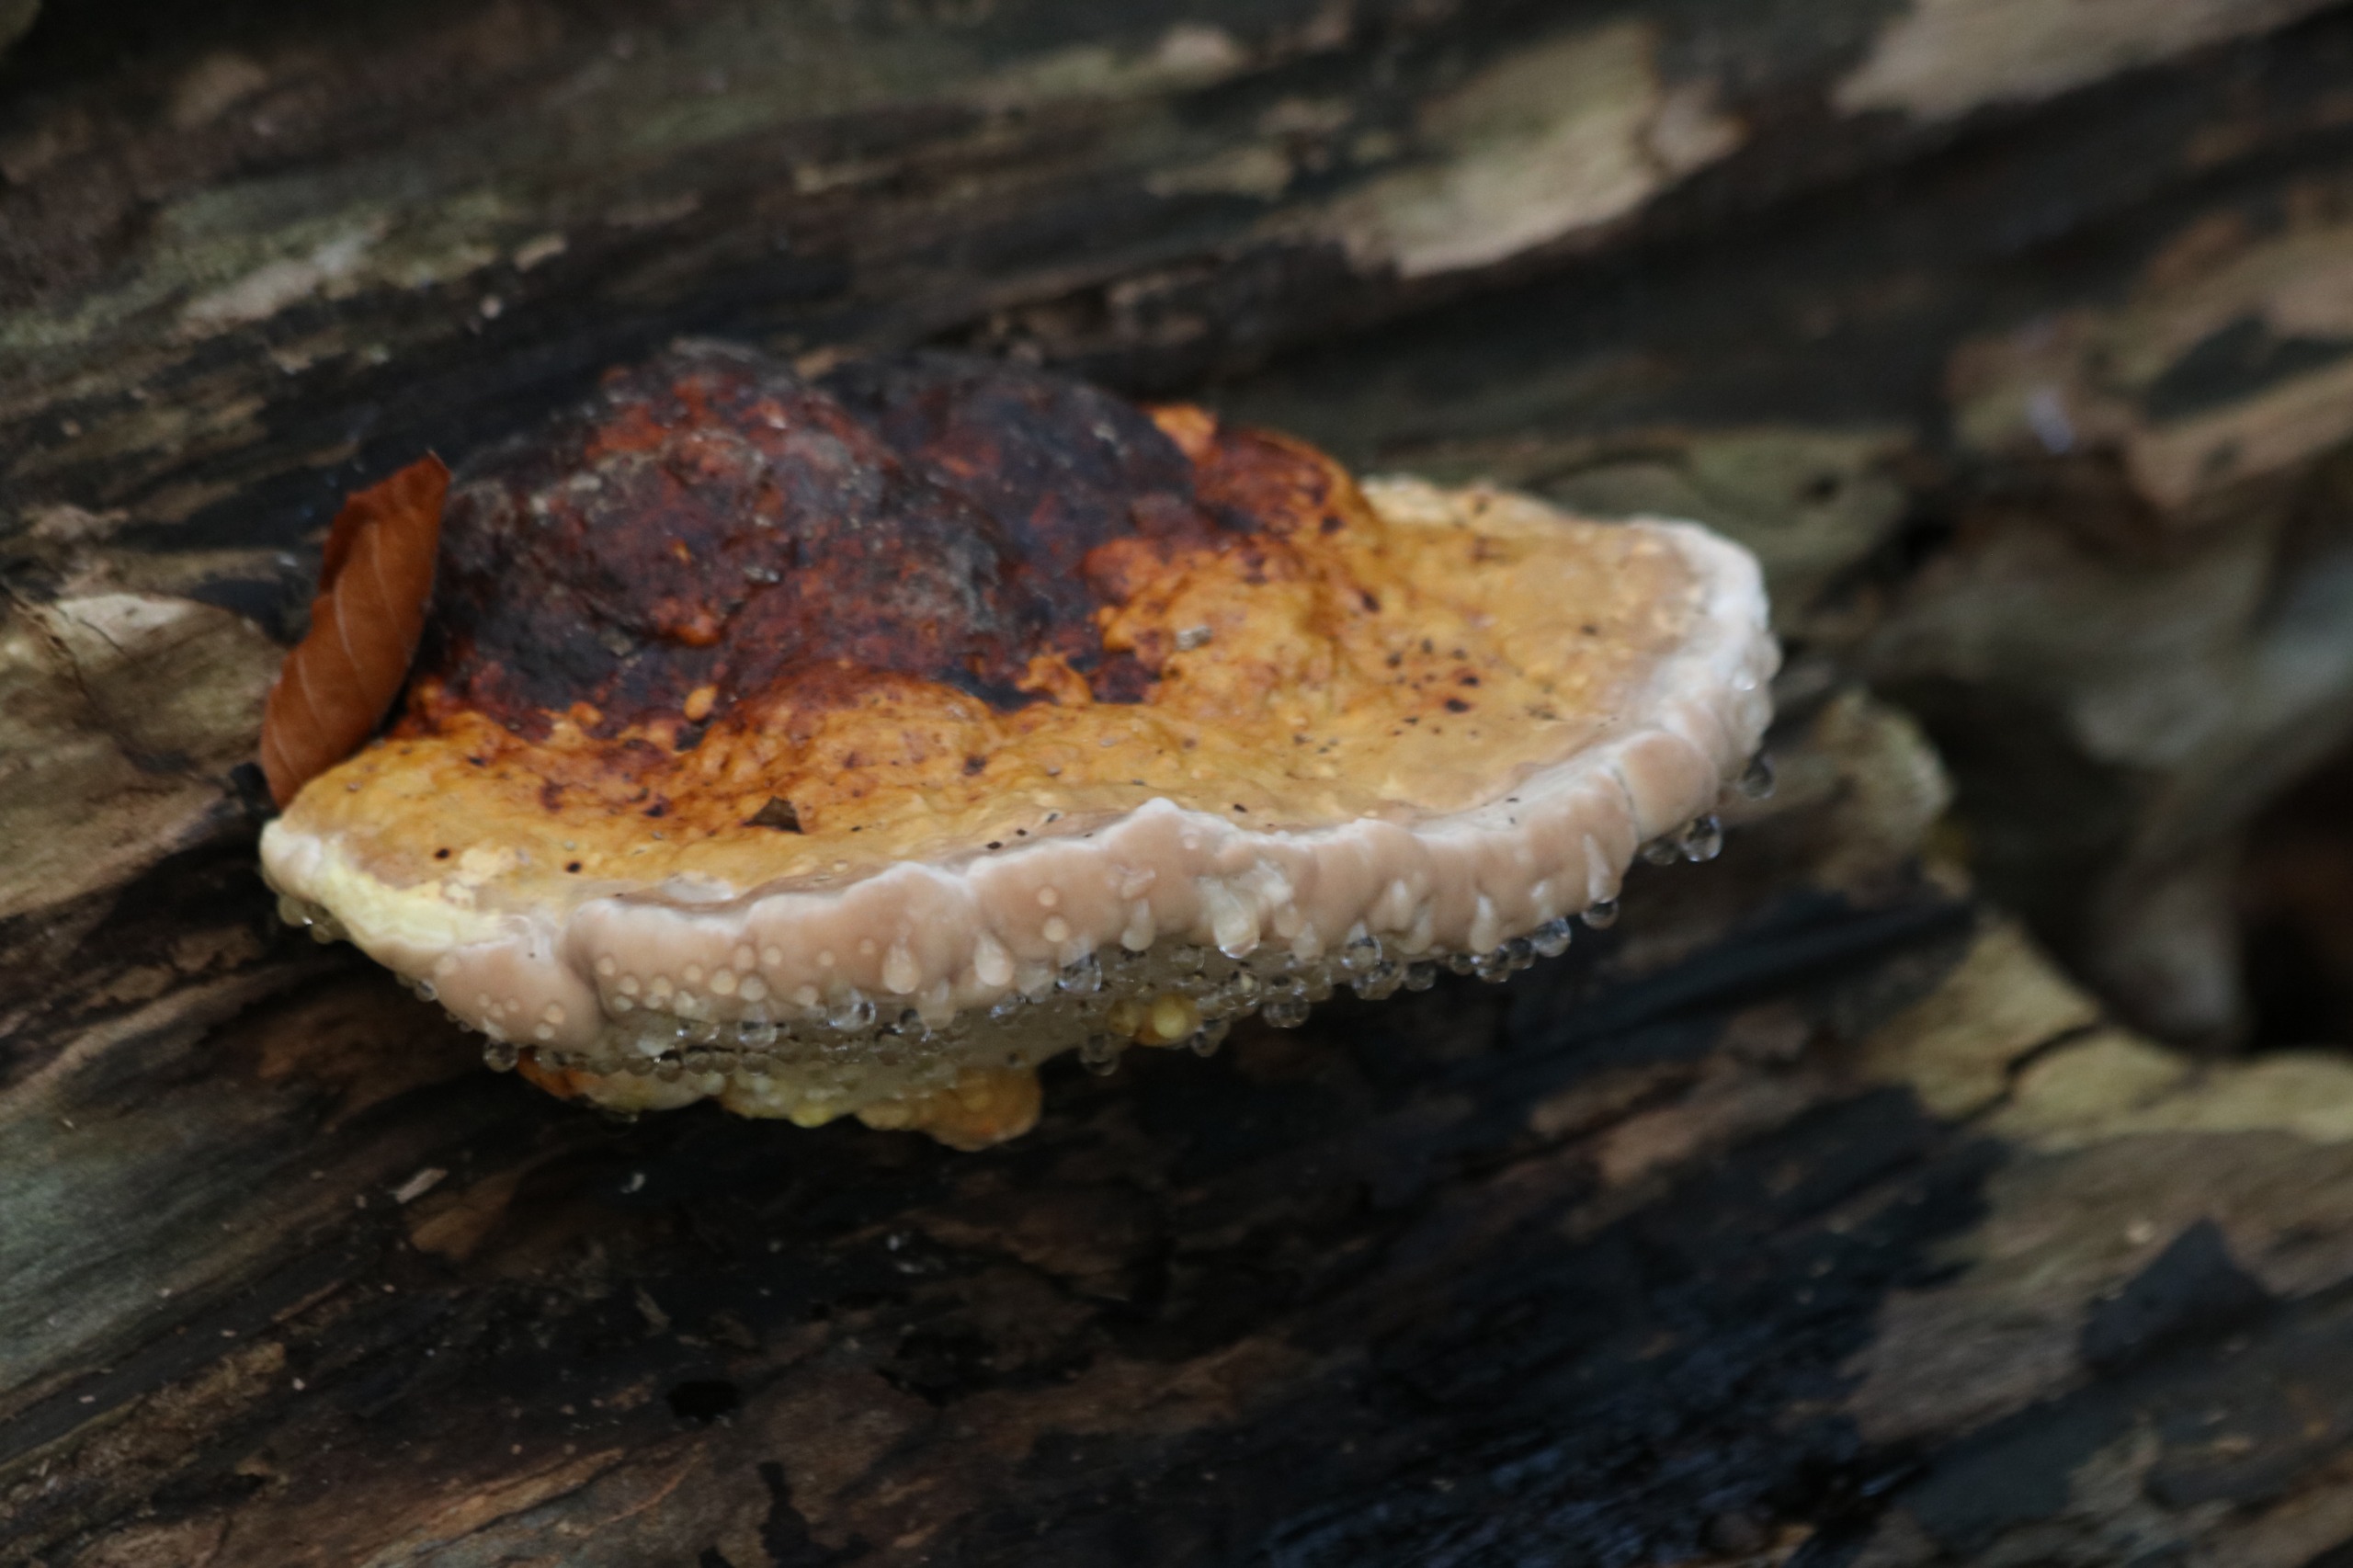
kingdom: Fungi
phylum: Basidiomycota
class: Agaricomycetes
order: Polyporales
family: Fomitopsidaceae
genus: Fomitopsis
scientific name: Fomitopsis pinicola
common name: Randbæltet hovporesvamp
